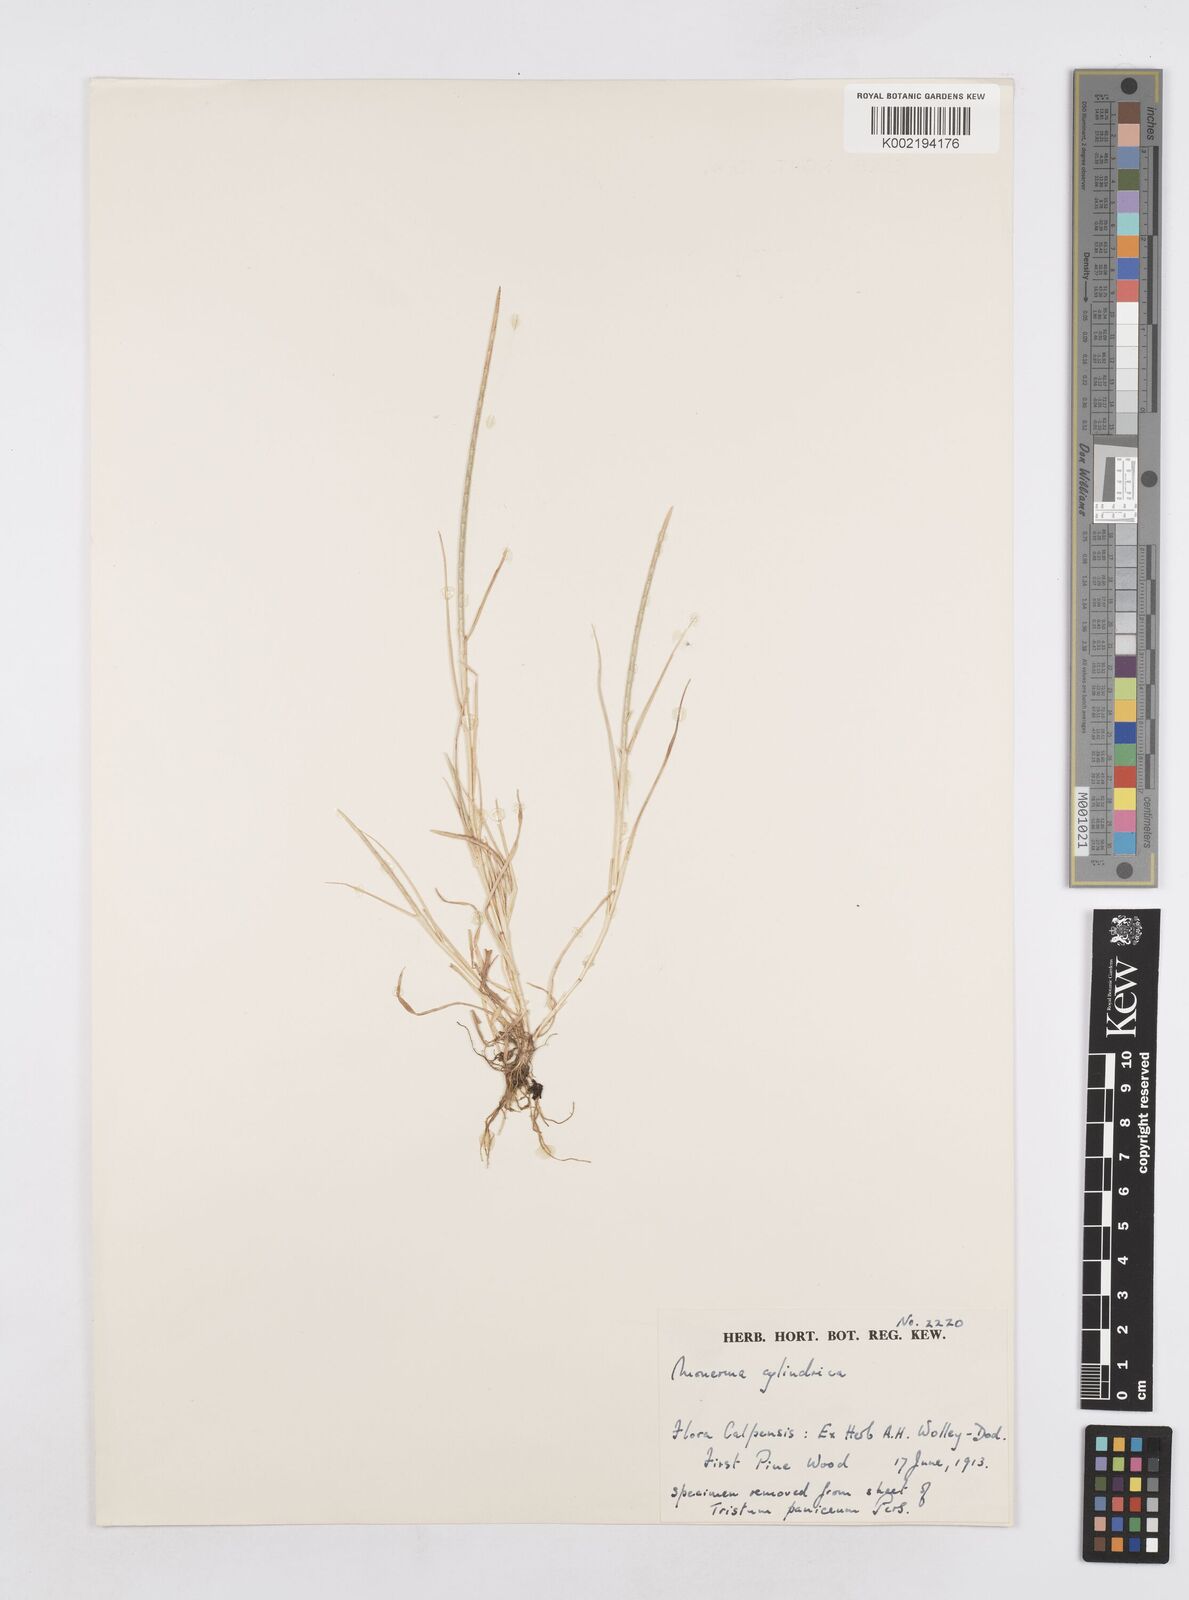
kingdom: Plantae
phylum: Tracheophyta
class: Liliopsida
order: Poales
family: Poaceae
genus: Parapholis
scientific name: Parapholis cylindrica
